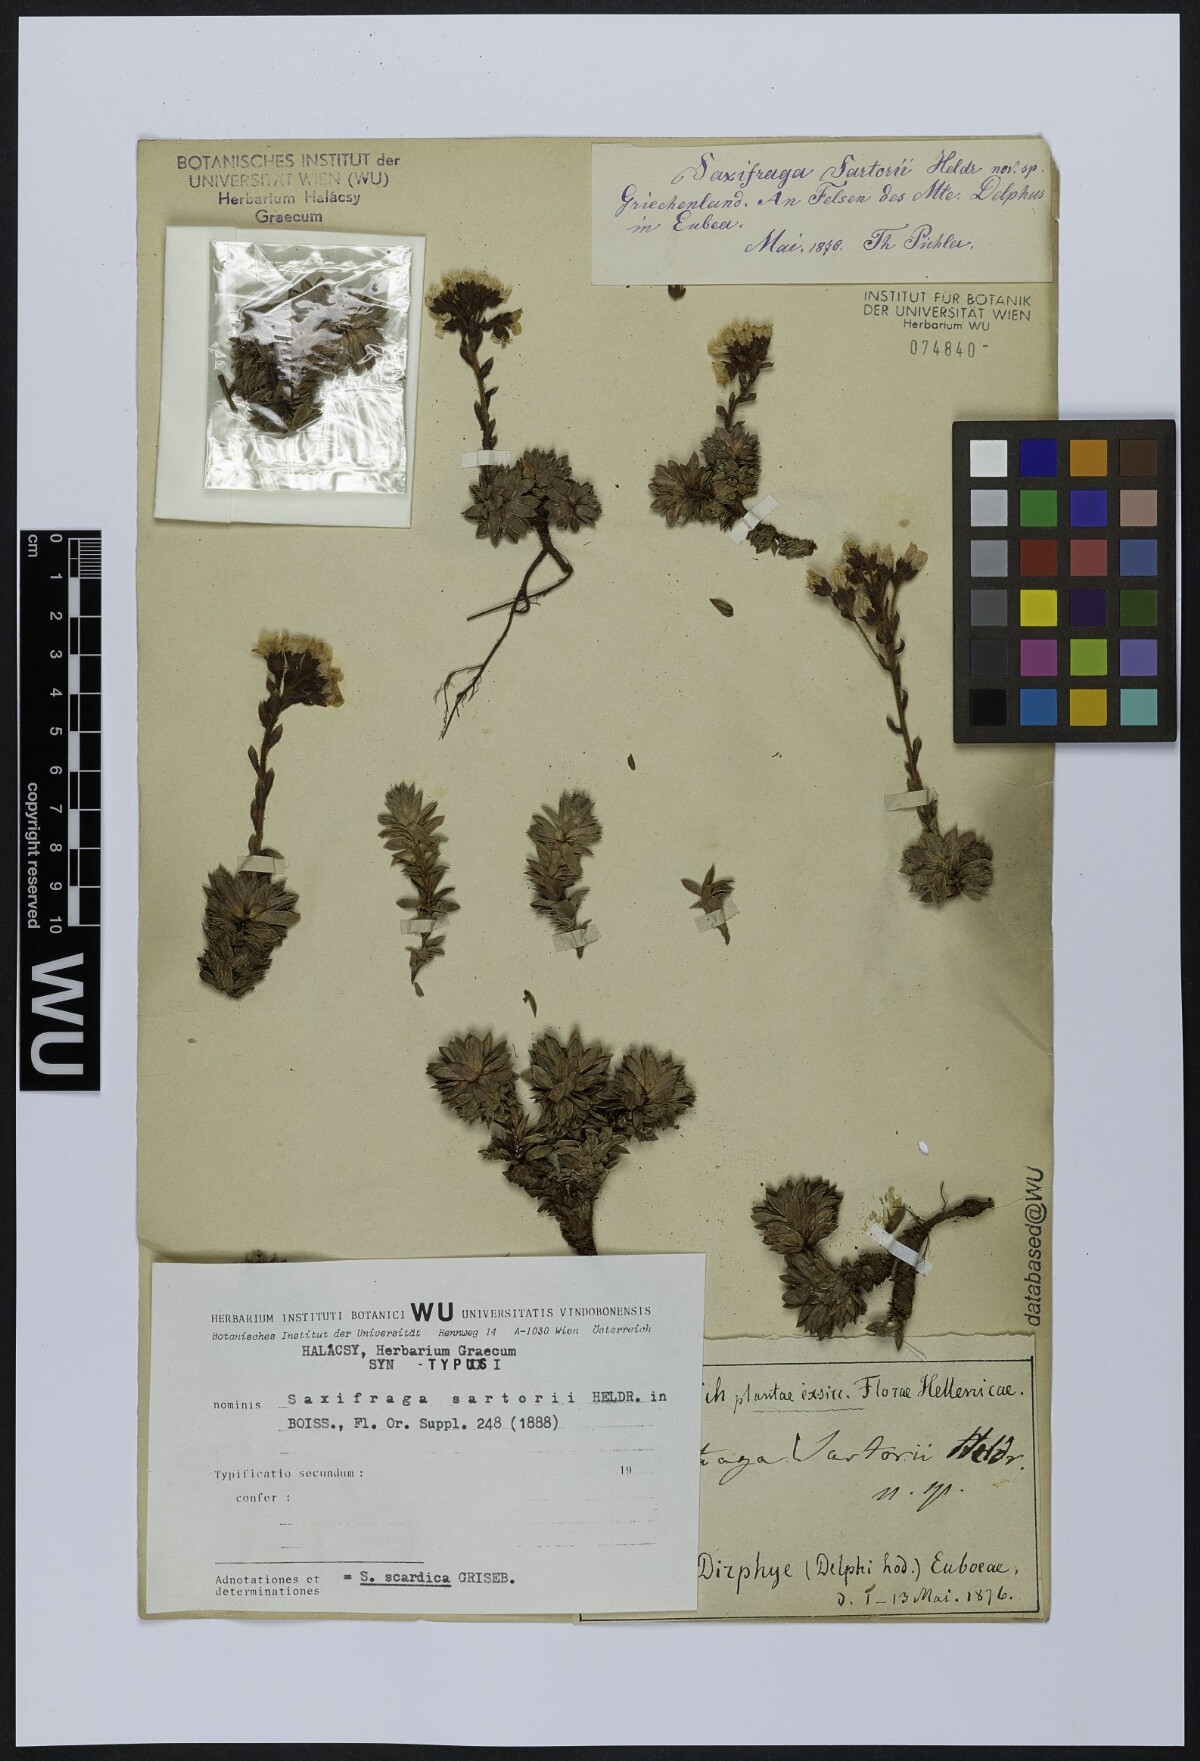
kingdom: Plantae
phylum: Tracheophyta
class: Magnoliopsida
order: Saxifragales
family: Saxifragaceae
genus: Saxifraga
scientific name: Saxifraga scardica
